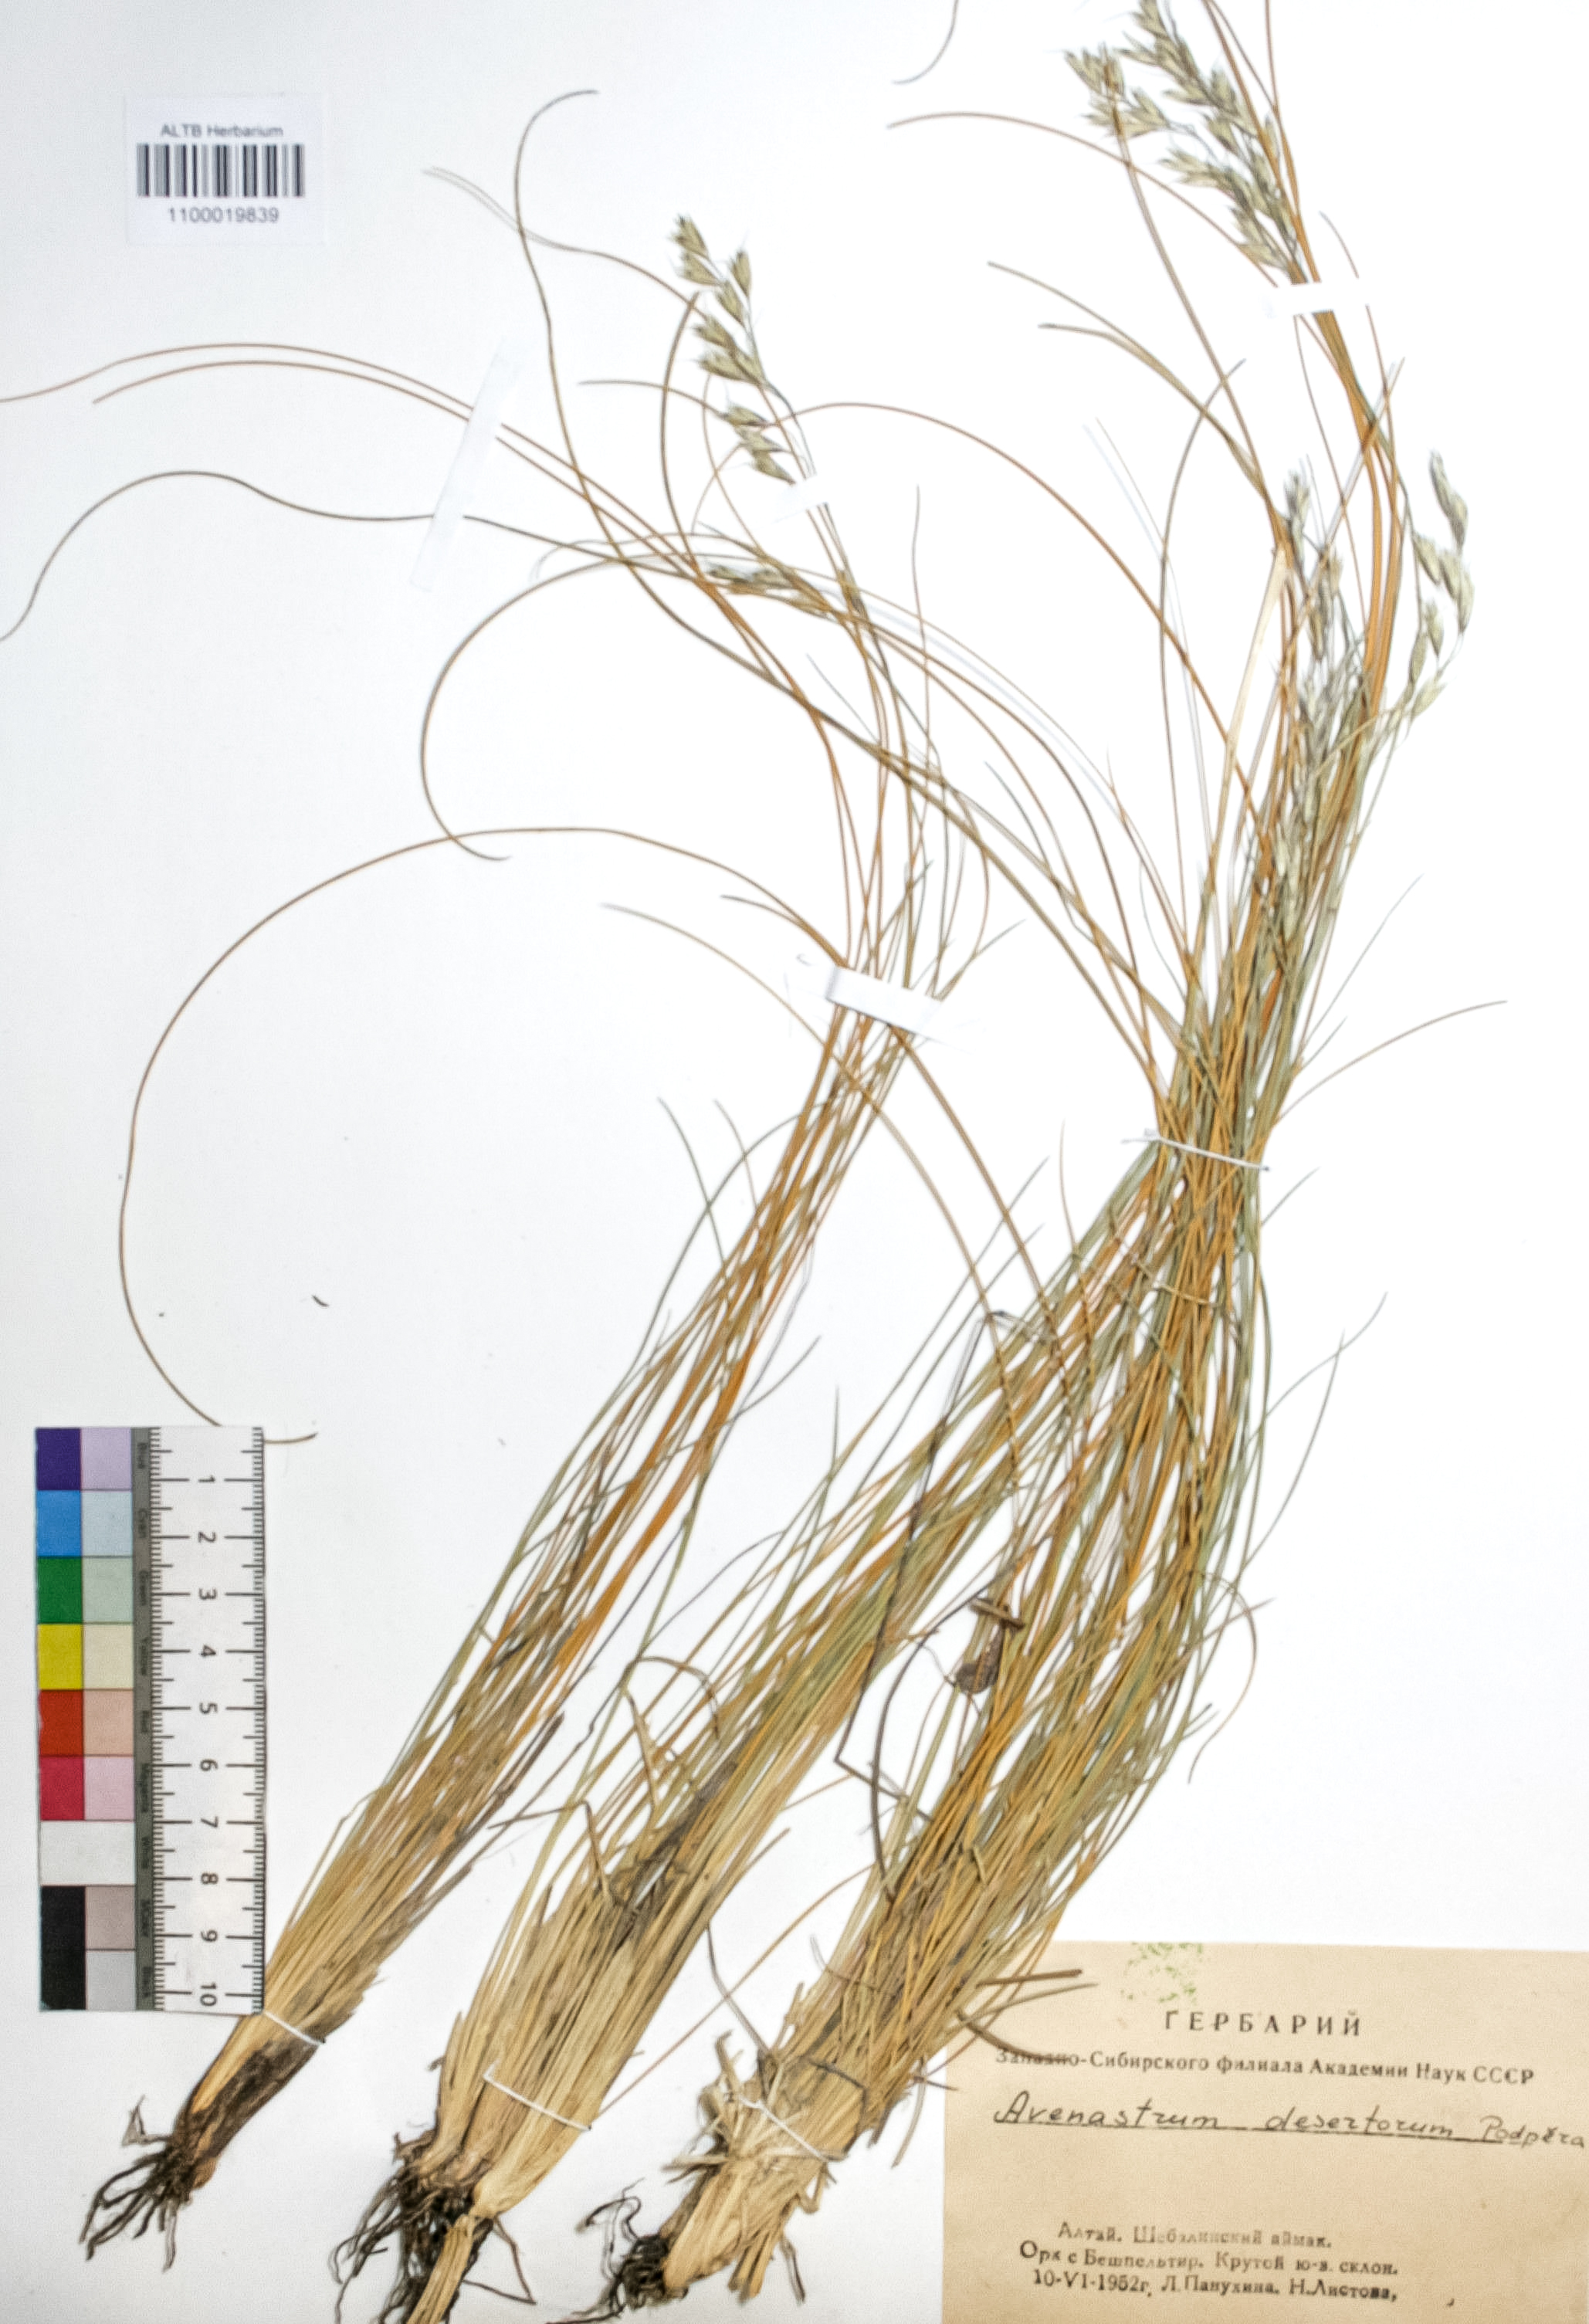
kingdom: Plantae
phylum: Tracheophyta
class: Liliopsida
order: Poales
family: Poaceae
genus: Helictotrichon
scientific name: Helictotrichon desertorum
